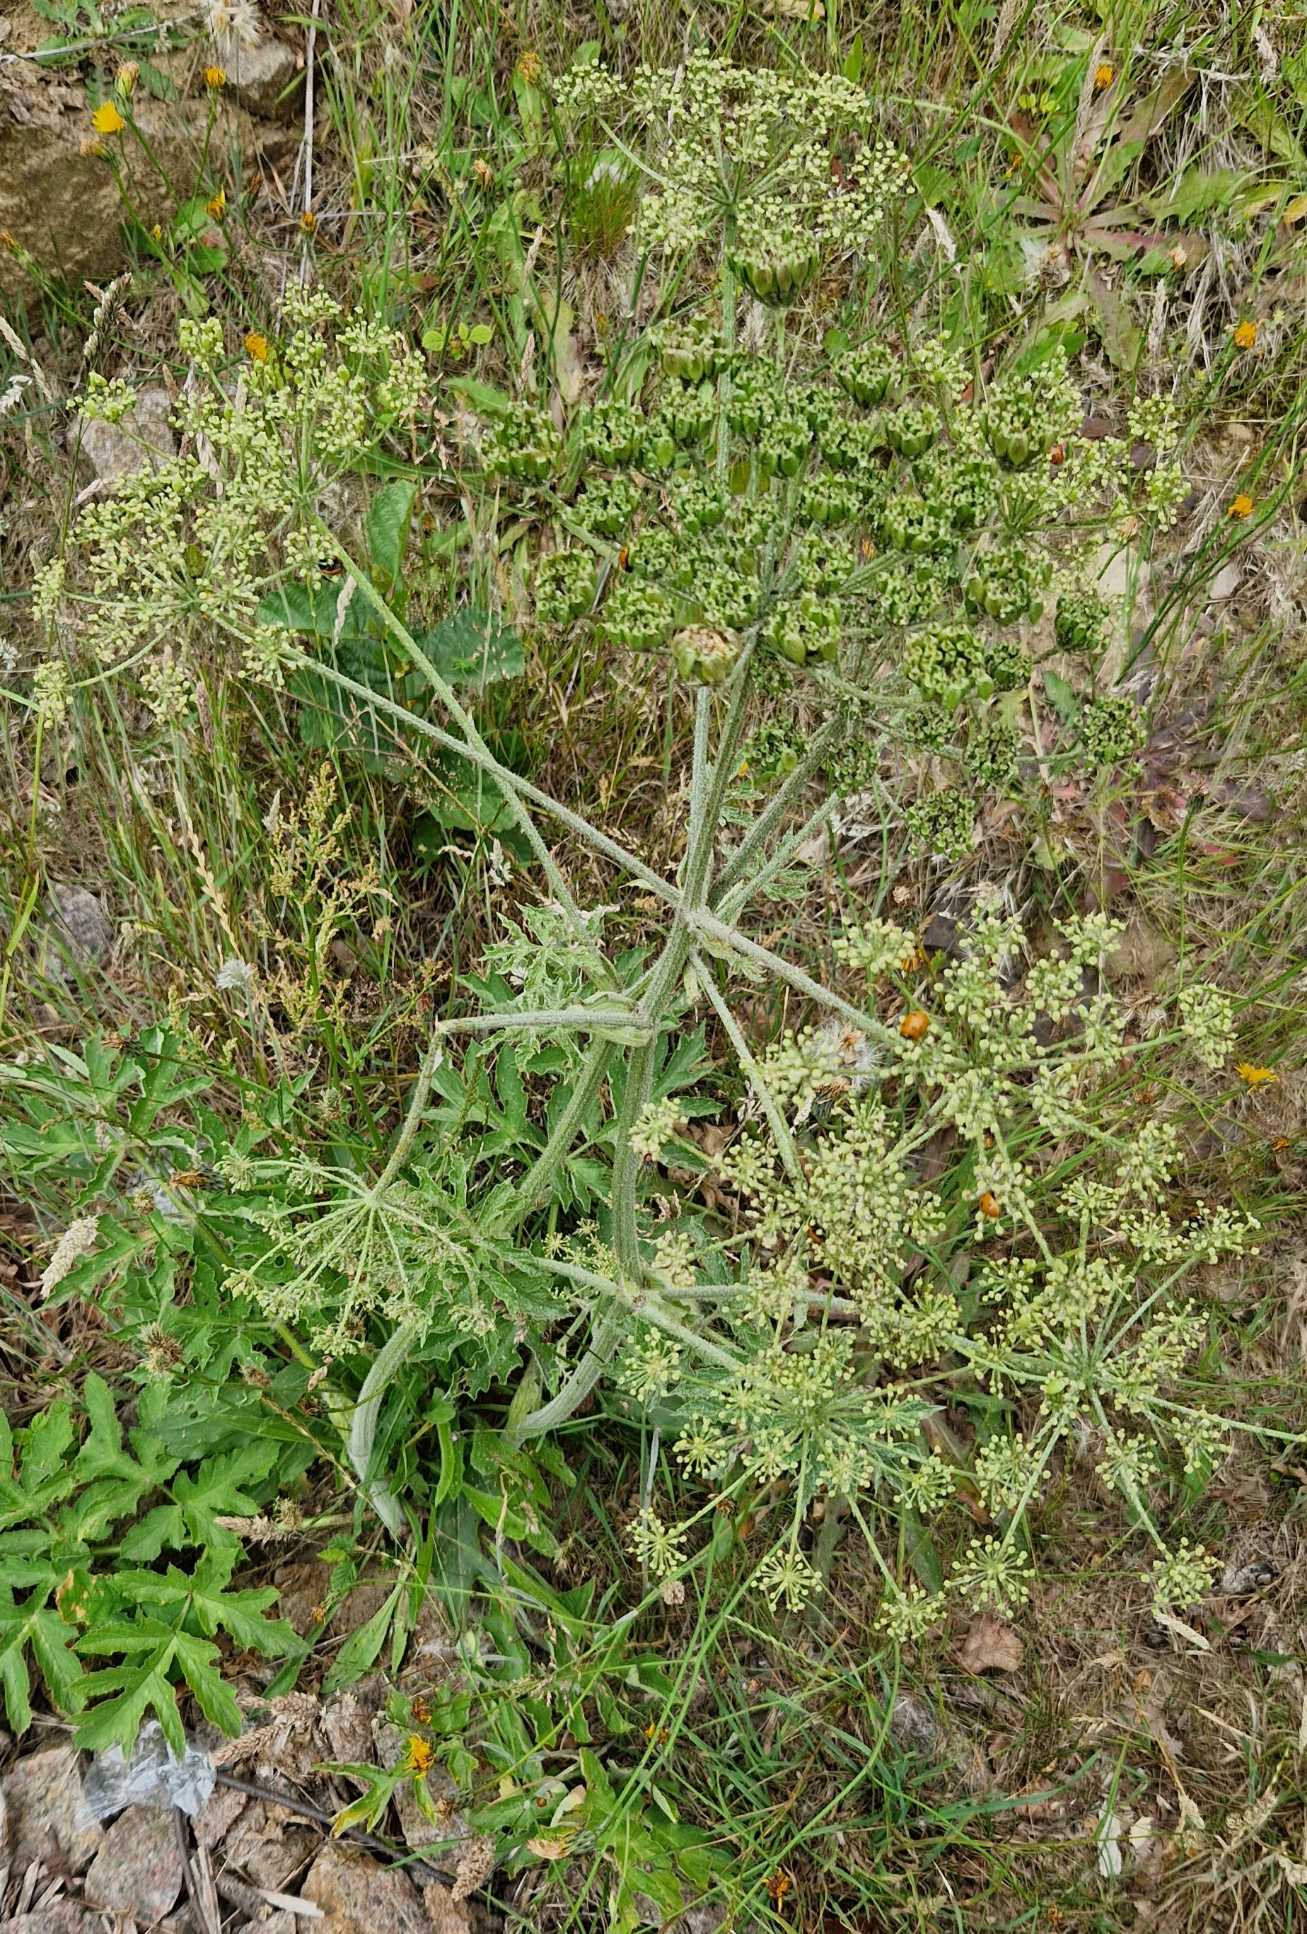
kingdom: Plantae
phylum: Tracheophyta
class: Magnoliopsida
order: Apiales
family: Apiaceae
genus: Heracleum
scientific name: Heracleum sphondylium
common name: Almindelig bjørneklo
